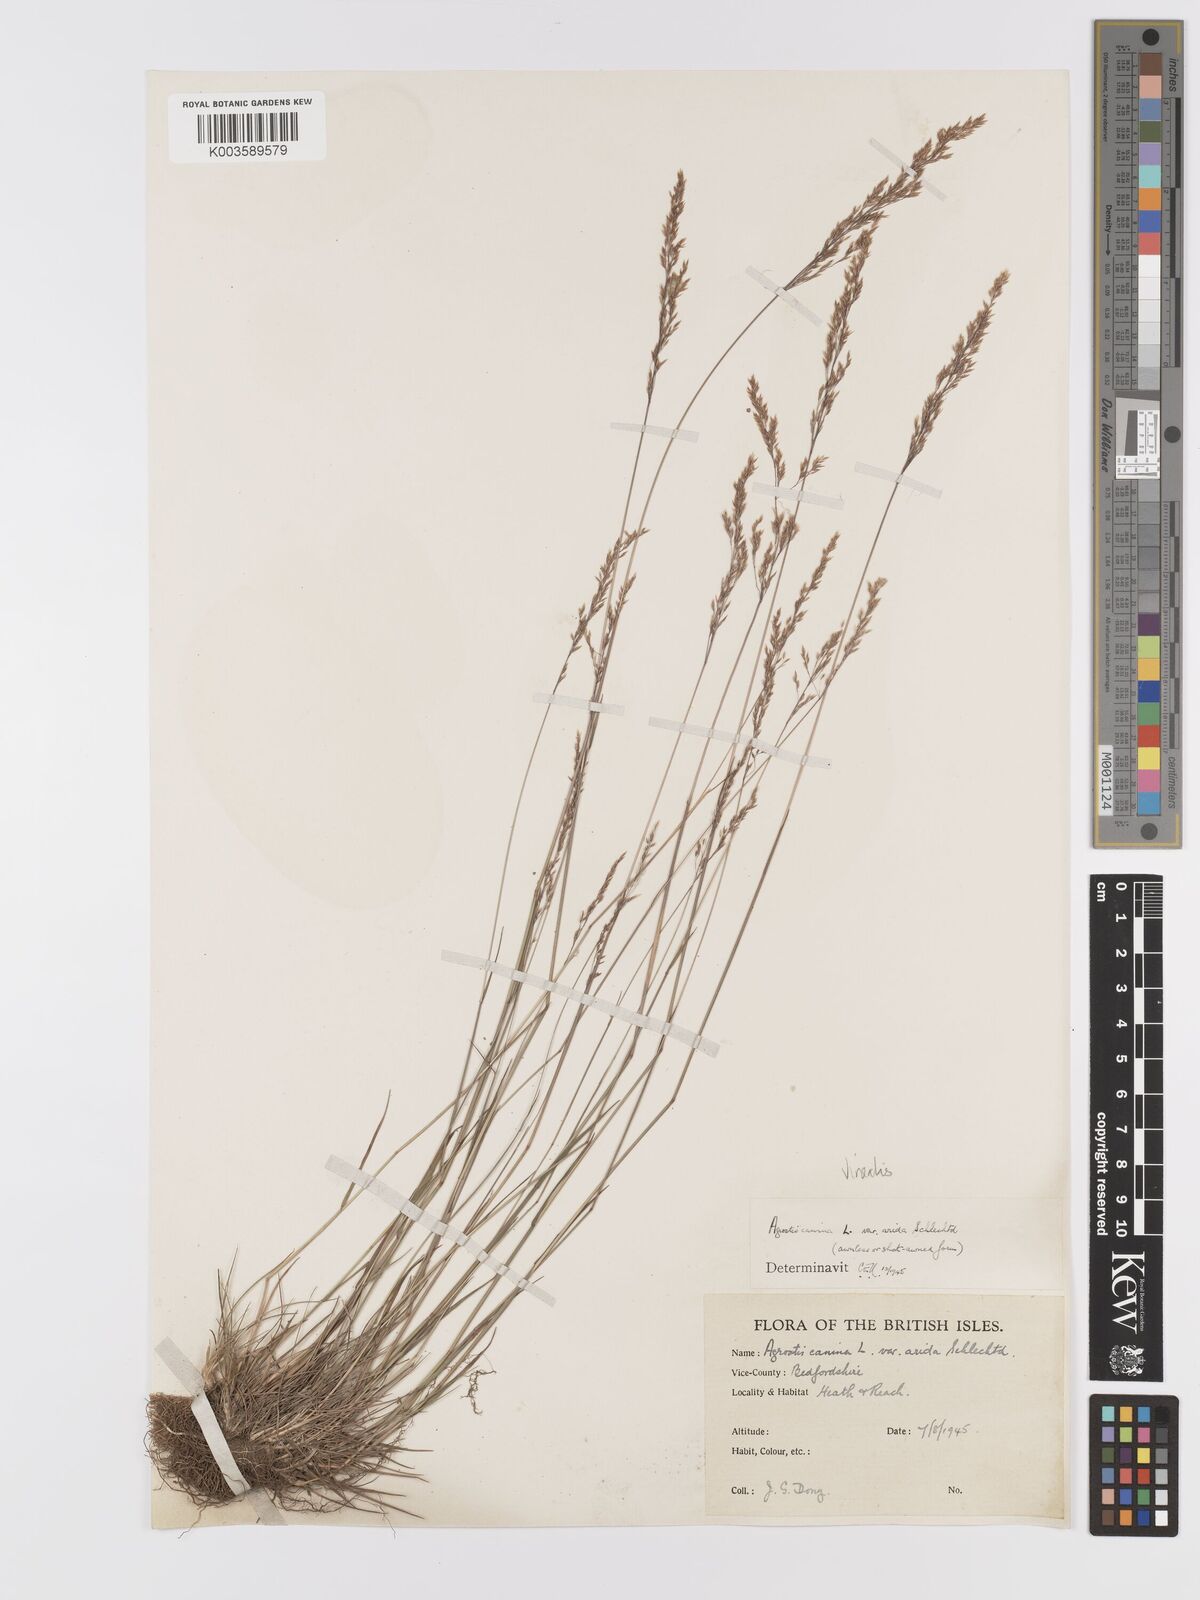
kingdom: Plantae
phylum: Tracheophyta
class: Liliopsida
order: Poales
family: Poaceae
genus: Agrostis
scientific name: Agrostis
